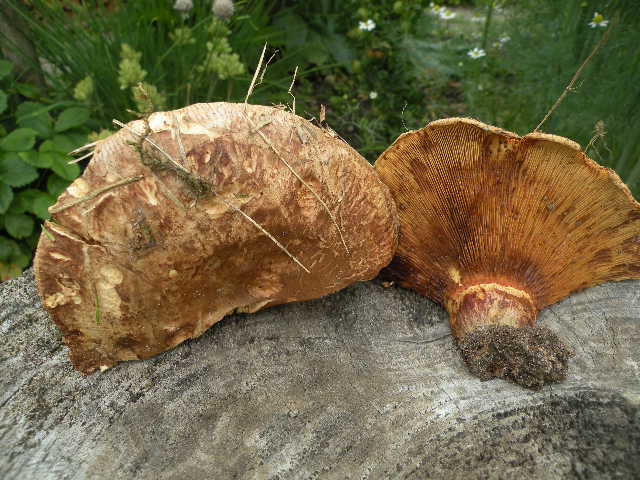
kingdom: Fungi
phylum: Basidiomycota
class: Agaricomycetes
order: Boletales
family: Paxillaceae
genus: Paxillus
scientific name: Paxillus ammoniavirescens
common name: olivensporet netbladhat
